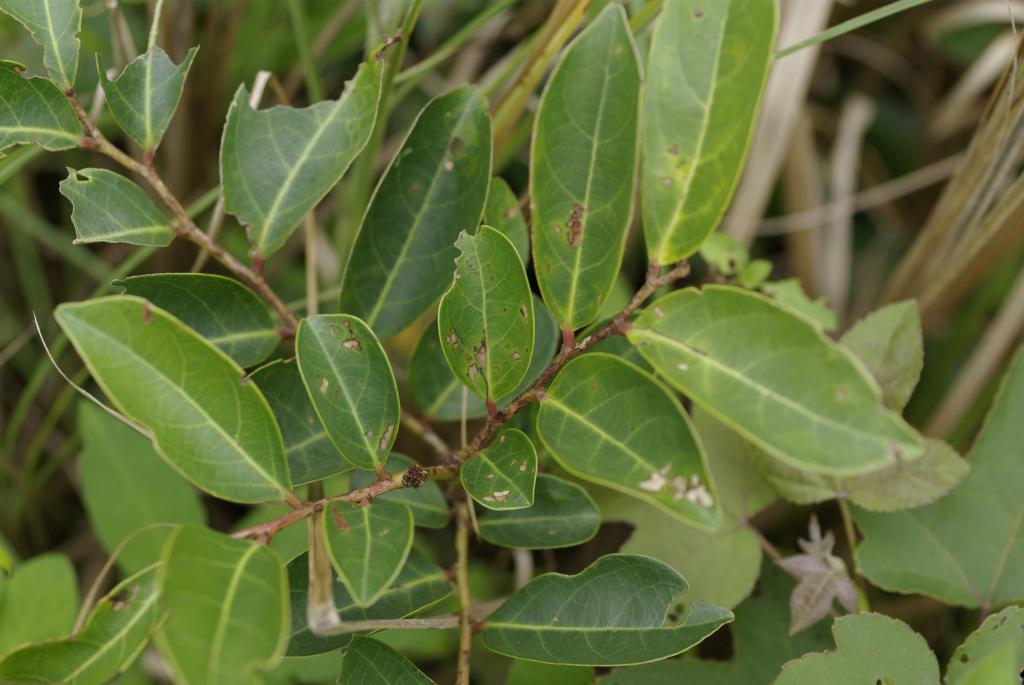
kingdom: Plantae
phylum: Tracheophyta
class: Magnoliopsida
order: Malpighiales
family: Phyllanthaceae
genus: Glochidion
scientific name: Glochidion rubrum
